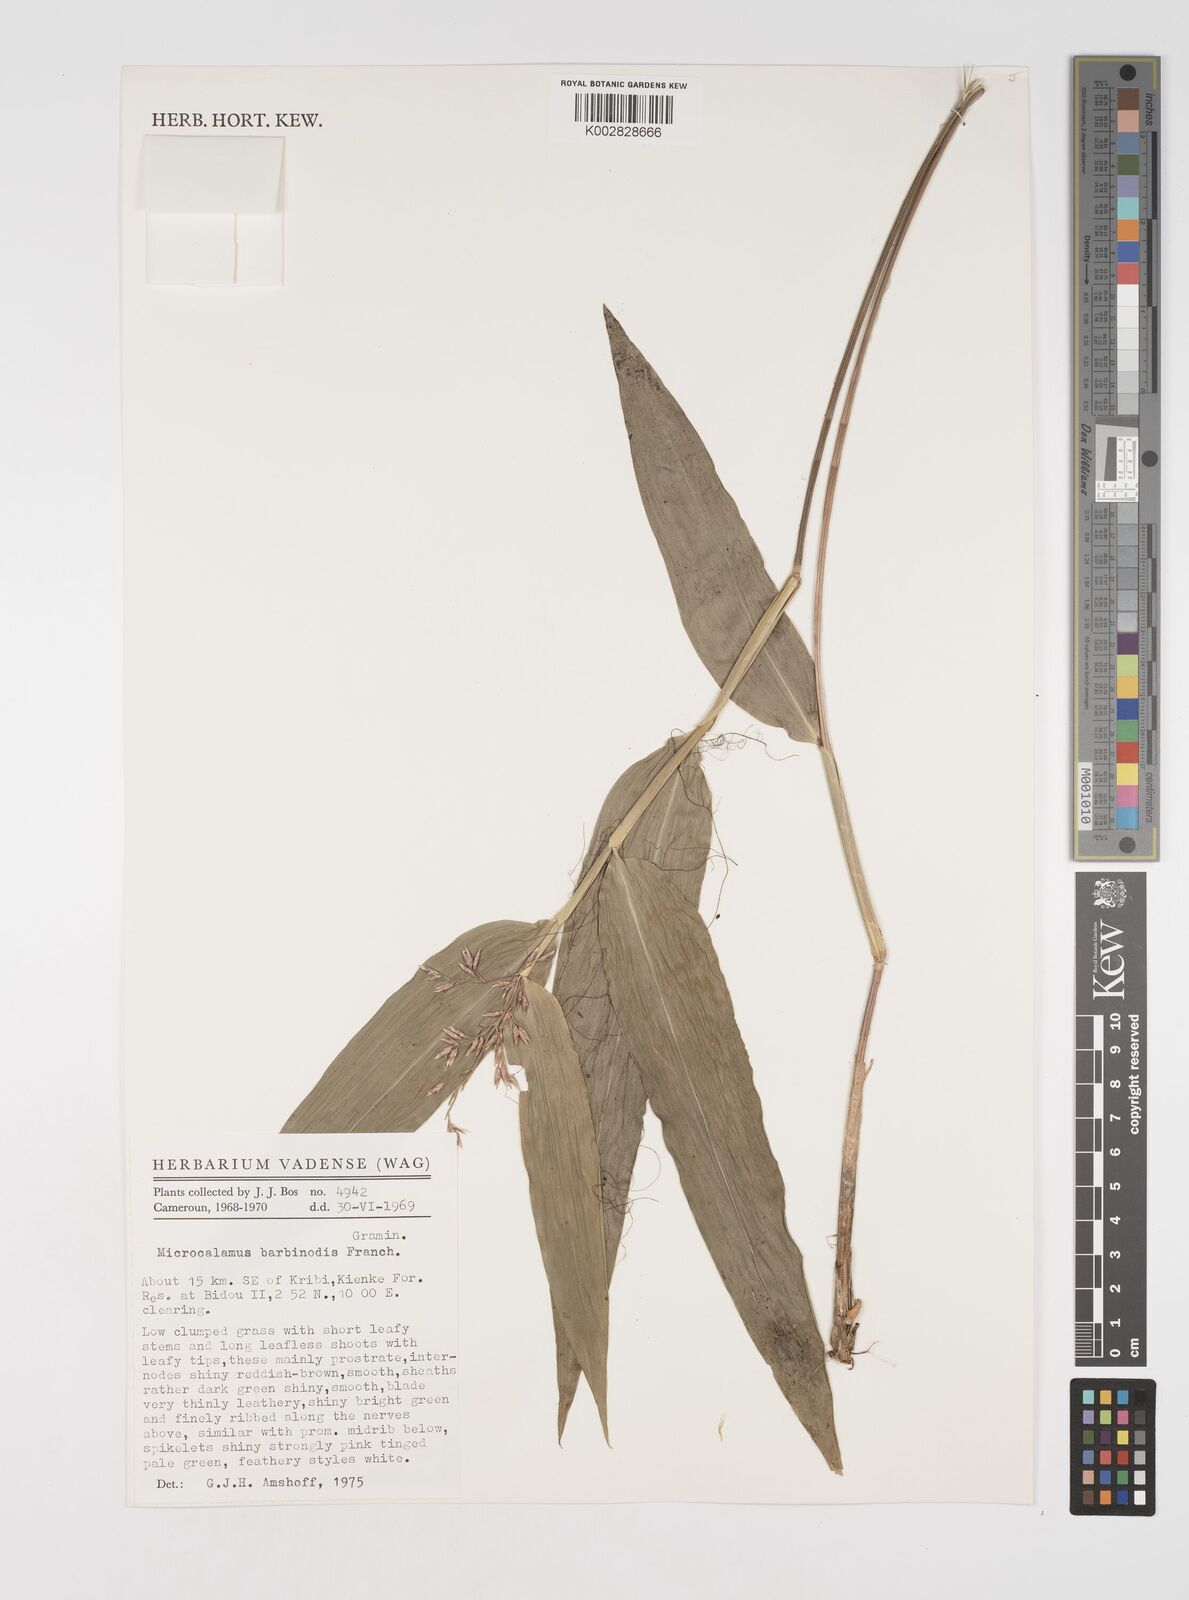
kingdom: Plantae
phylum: Tracheophyta
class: Liliopsida
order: Poales
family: Poaceae
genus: Microcalamus
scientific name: Microcalamus barbinodis
